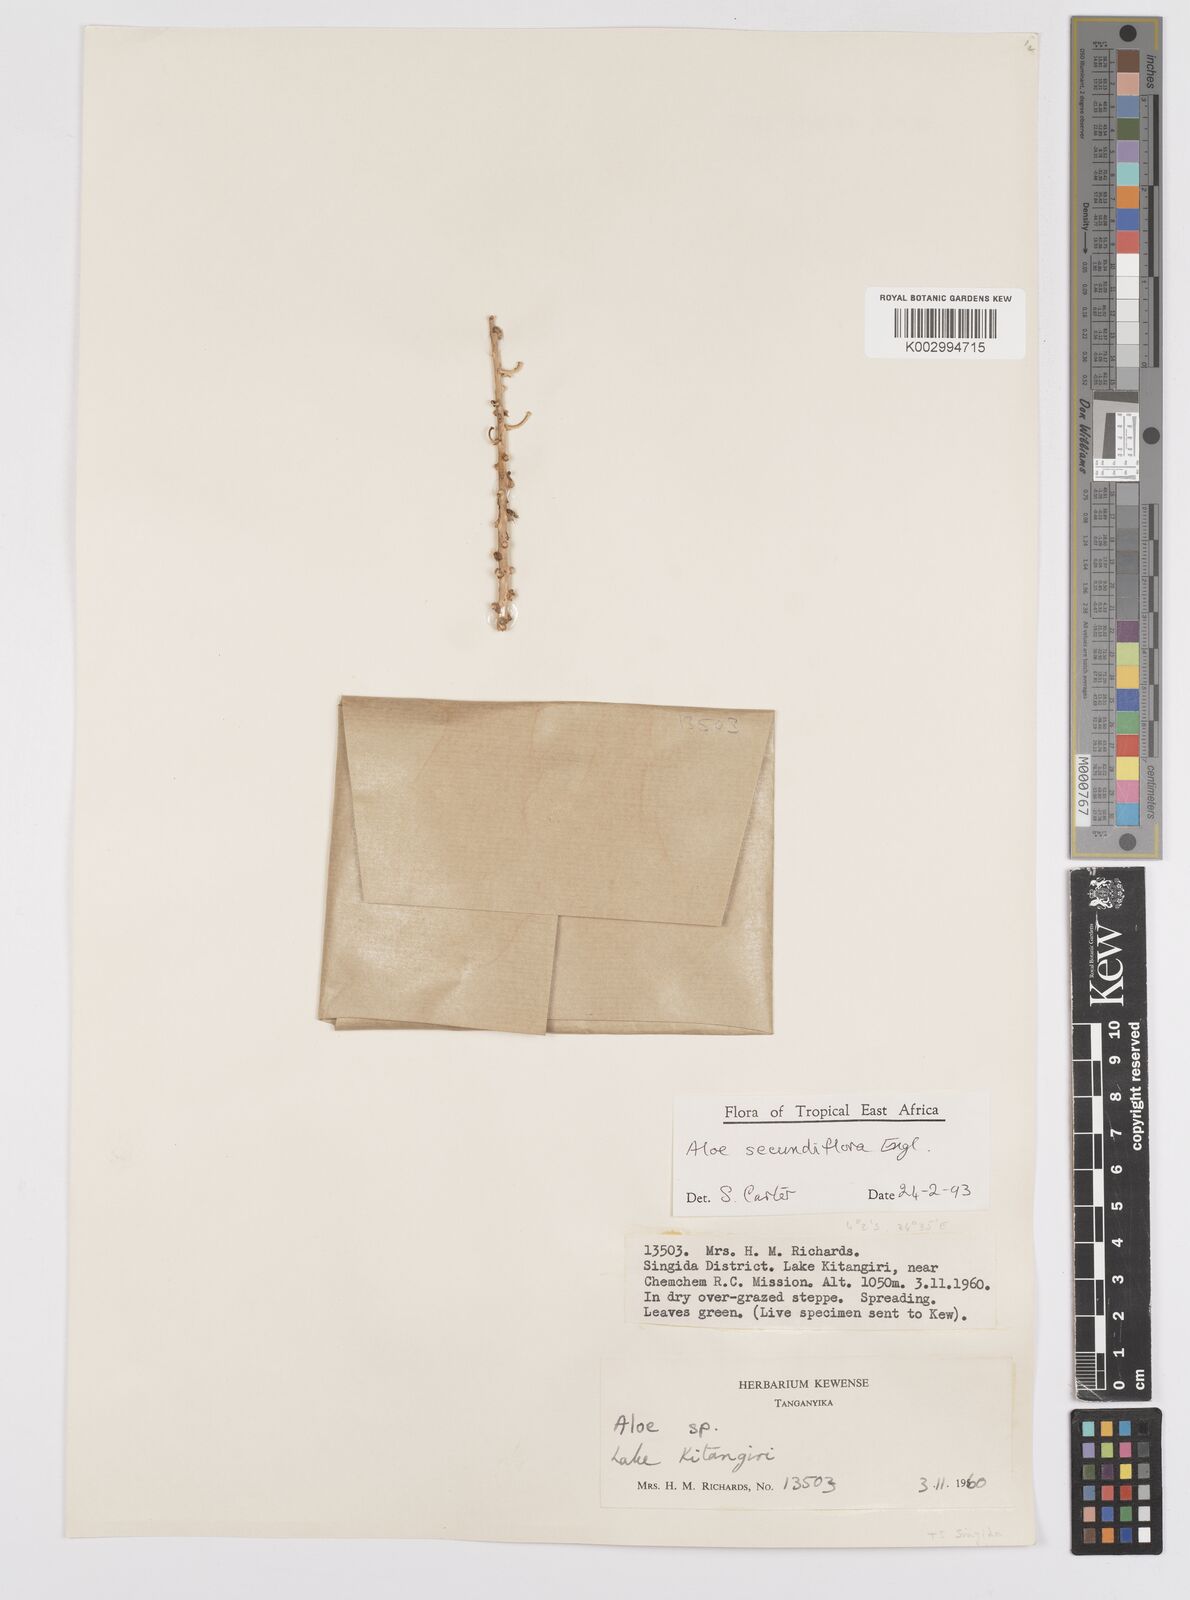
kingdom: Plantae
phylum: Tracheophyta
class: Liliopsida
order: Asparagales
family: Asphodelaceae
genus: Aloe
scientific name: Aloe secundiflora
